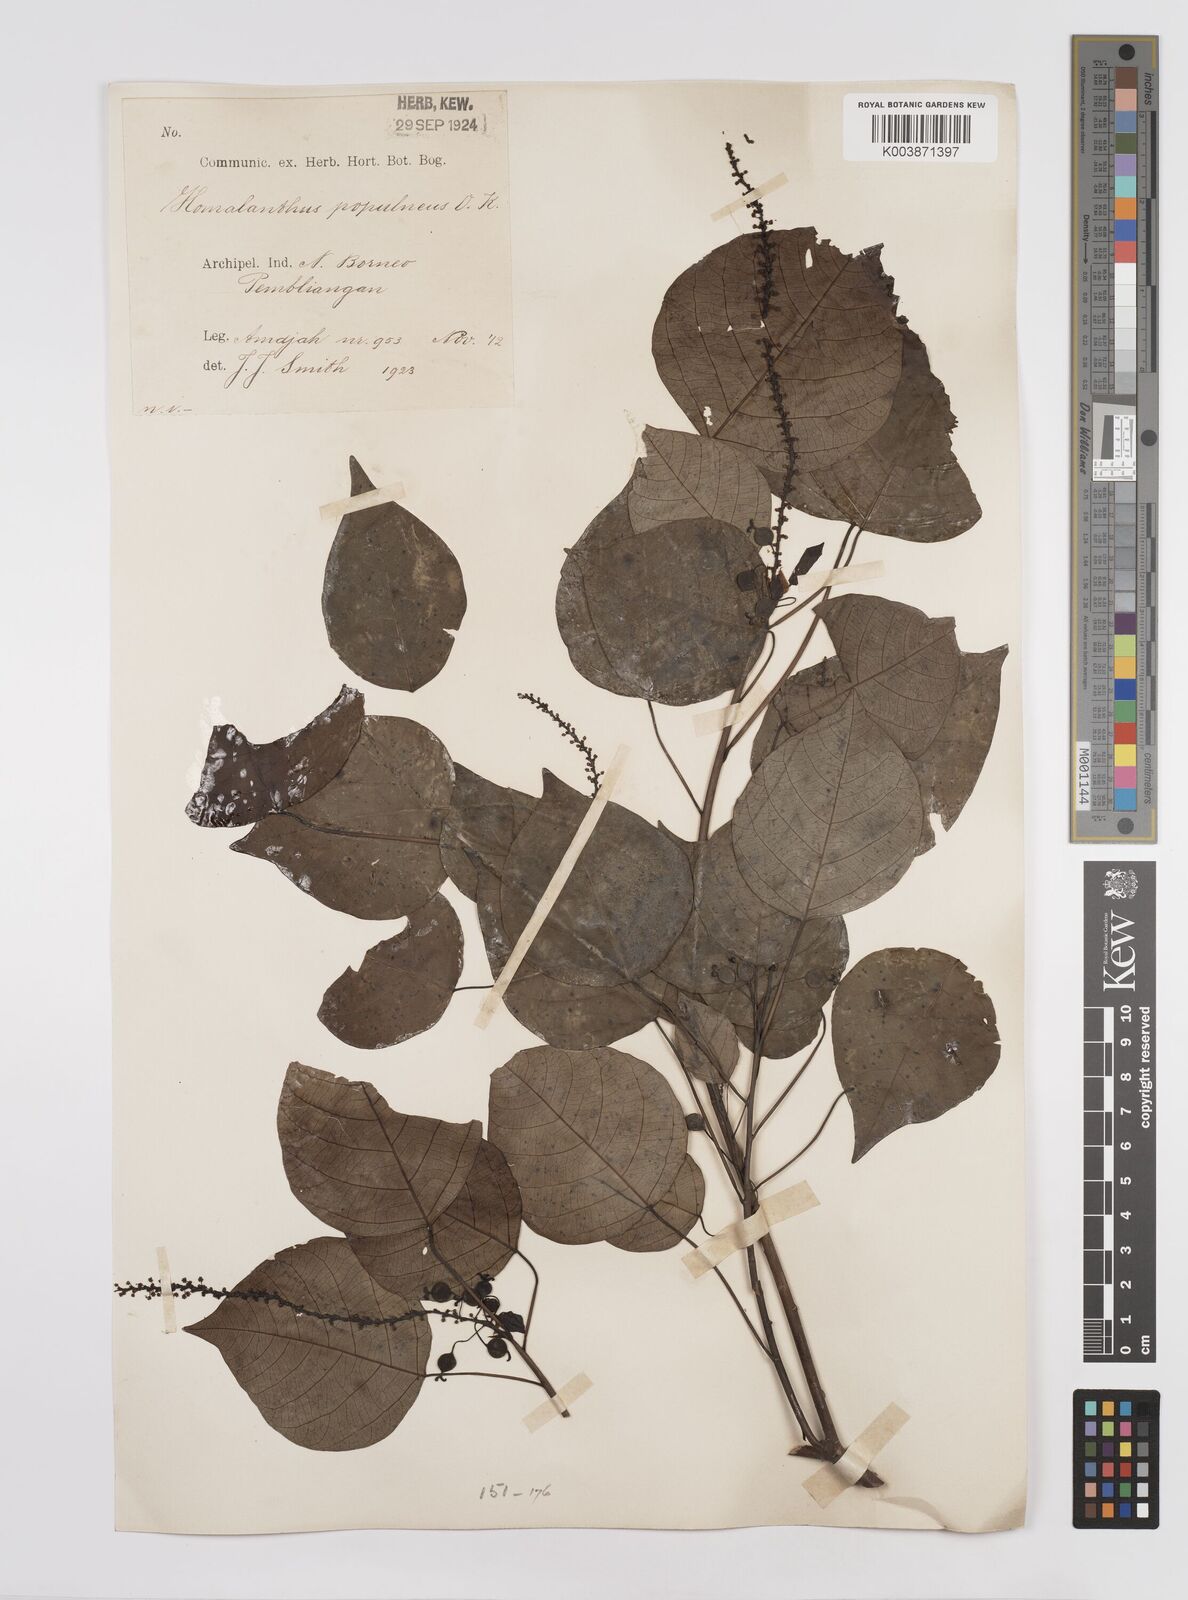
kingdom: Plantae
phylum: Tracheophyta
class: Magnoliopsida
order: Malpighiales
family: Euphorbiaceae
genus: Homalanthus
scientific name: Homalanthus populneus
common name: Spurge
